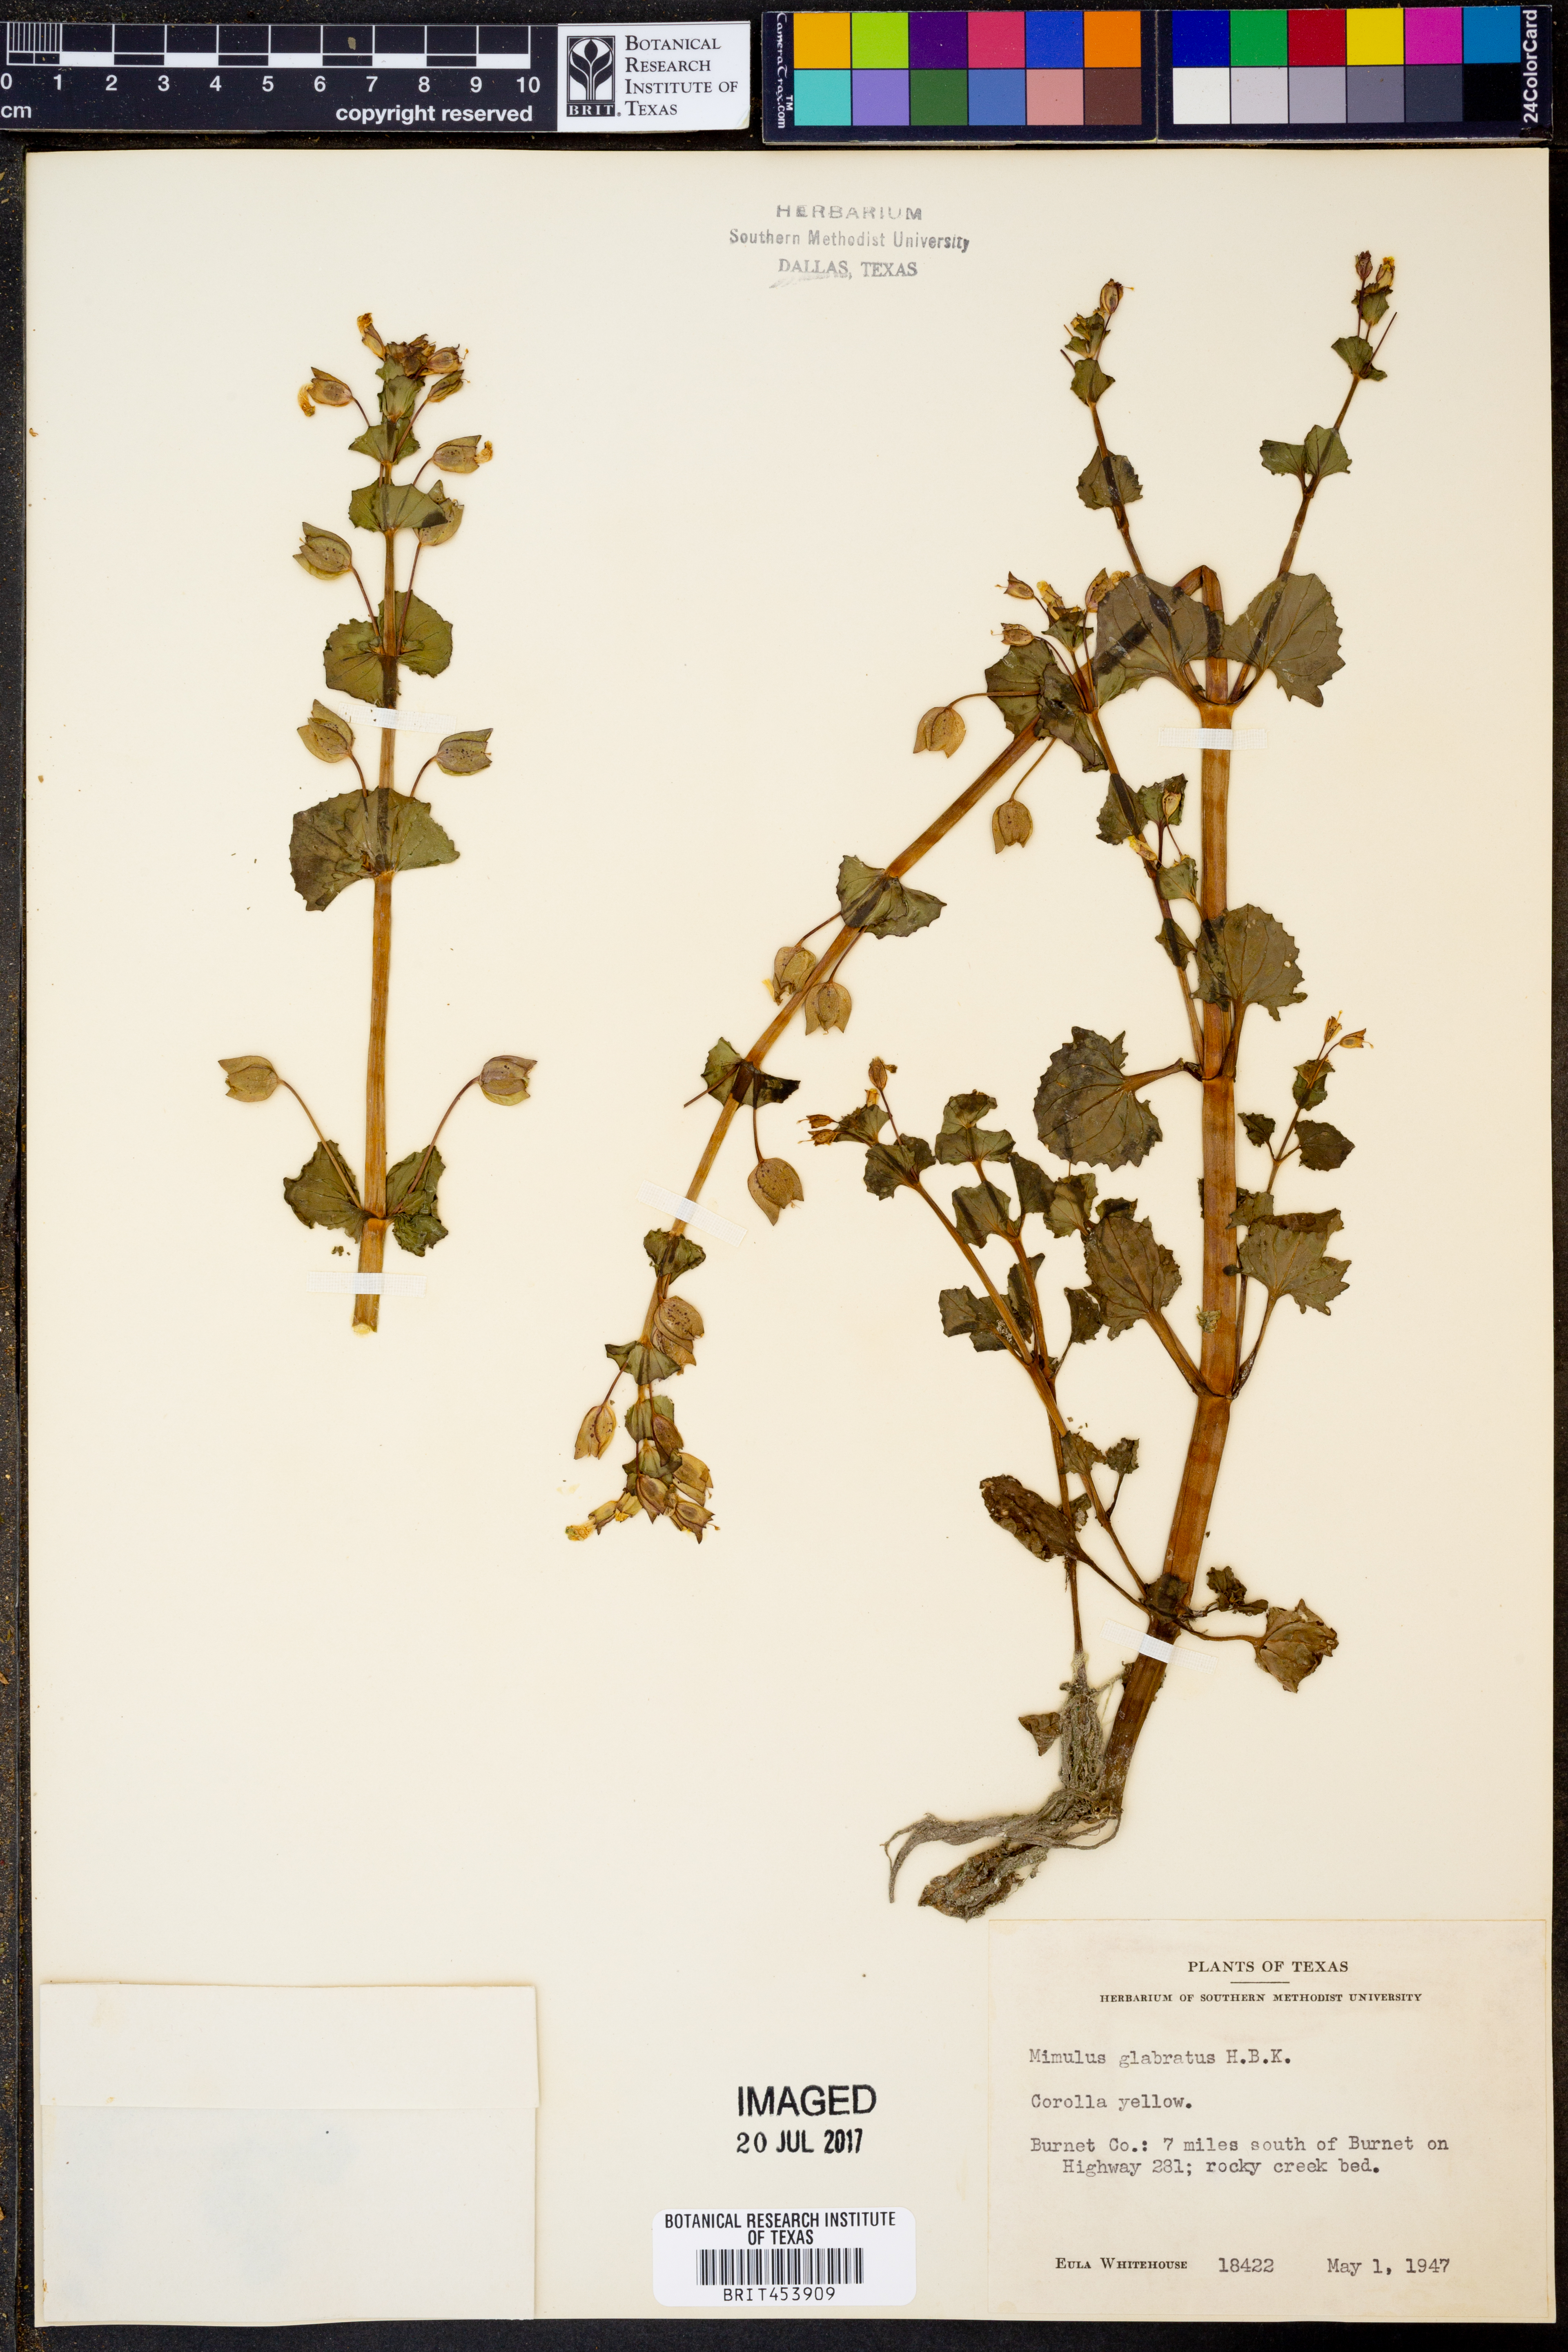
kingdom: Plantae
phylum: Tracheophyta
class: Magnoliopsida
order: Lamiales
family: Phrymaceae
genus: Erythranthe
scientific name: Erythranthe glabrata
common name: Round-leaved monkeyflower
